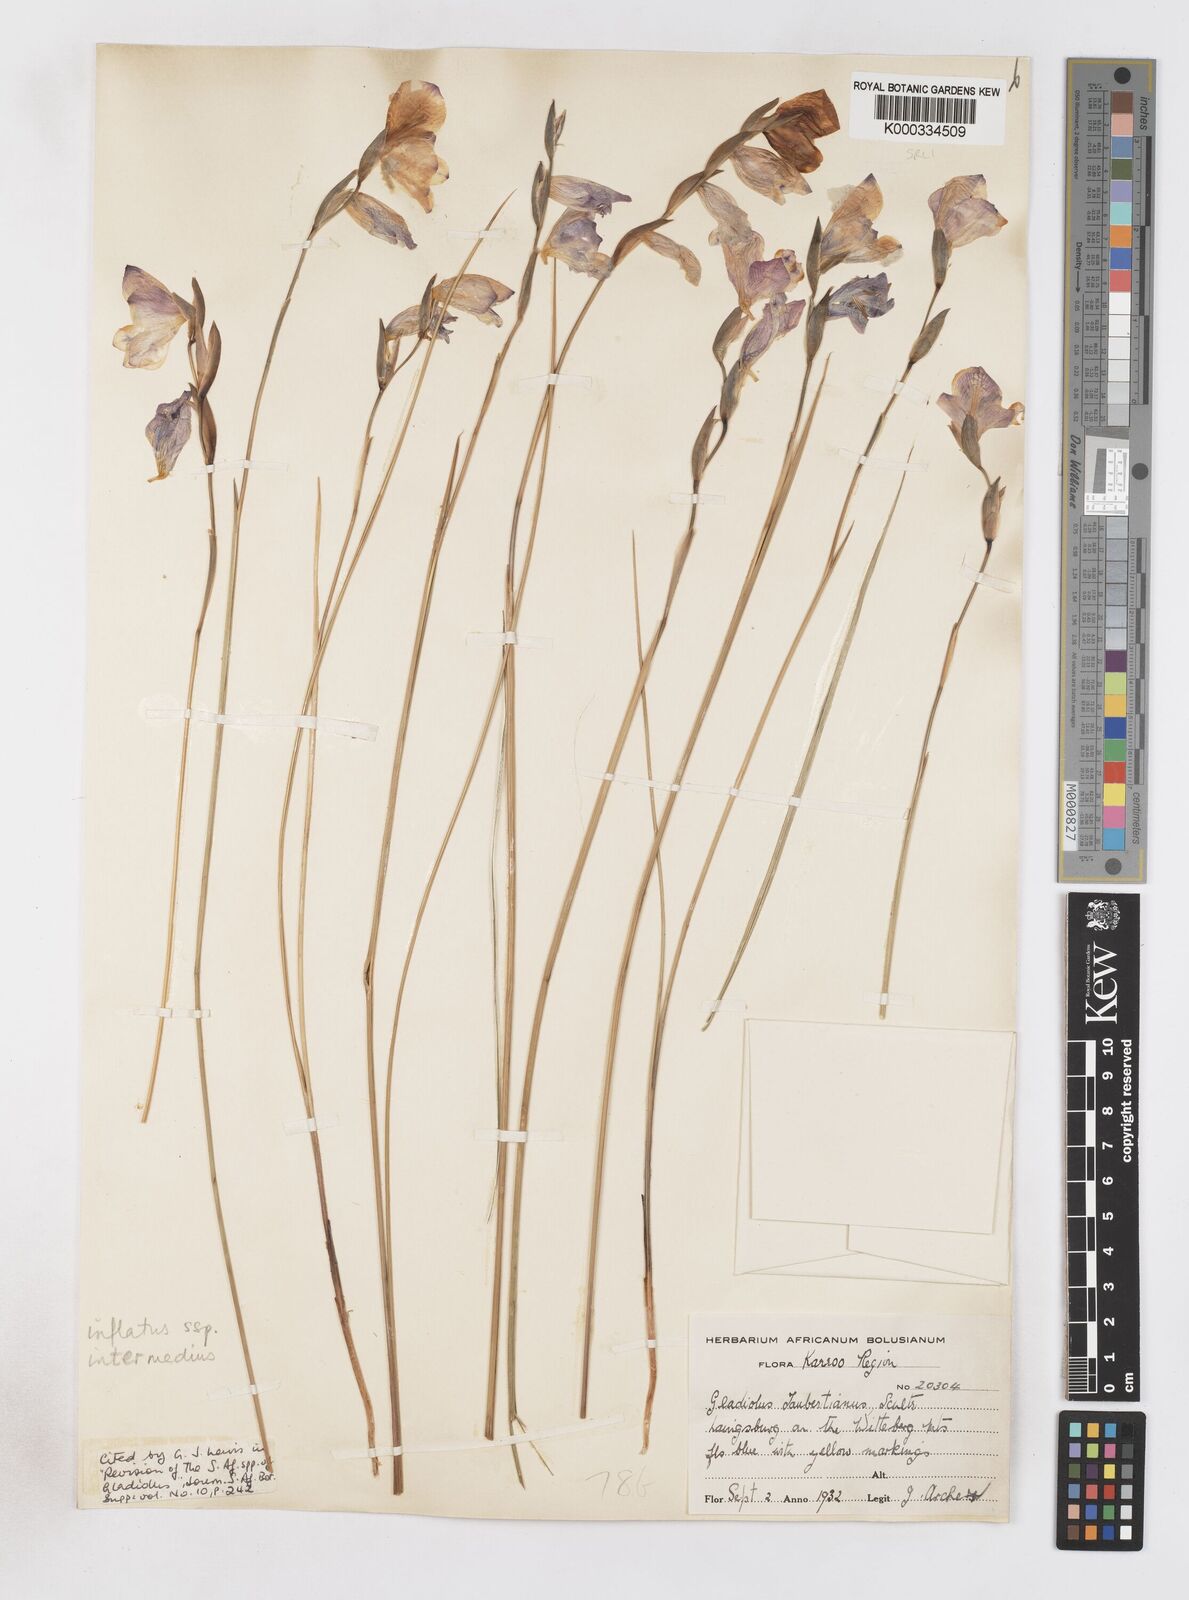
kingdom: Plantae
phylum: Tracheophyta
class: Liliopsida
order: Asparagales
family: Iridaceae
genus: Gladiolus
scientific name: Gladiolus patersoniae
